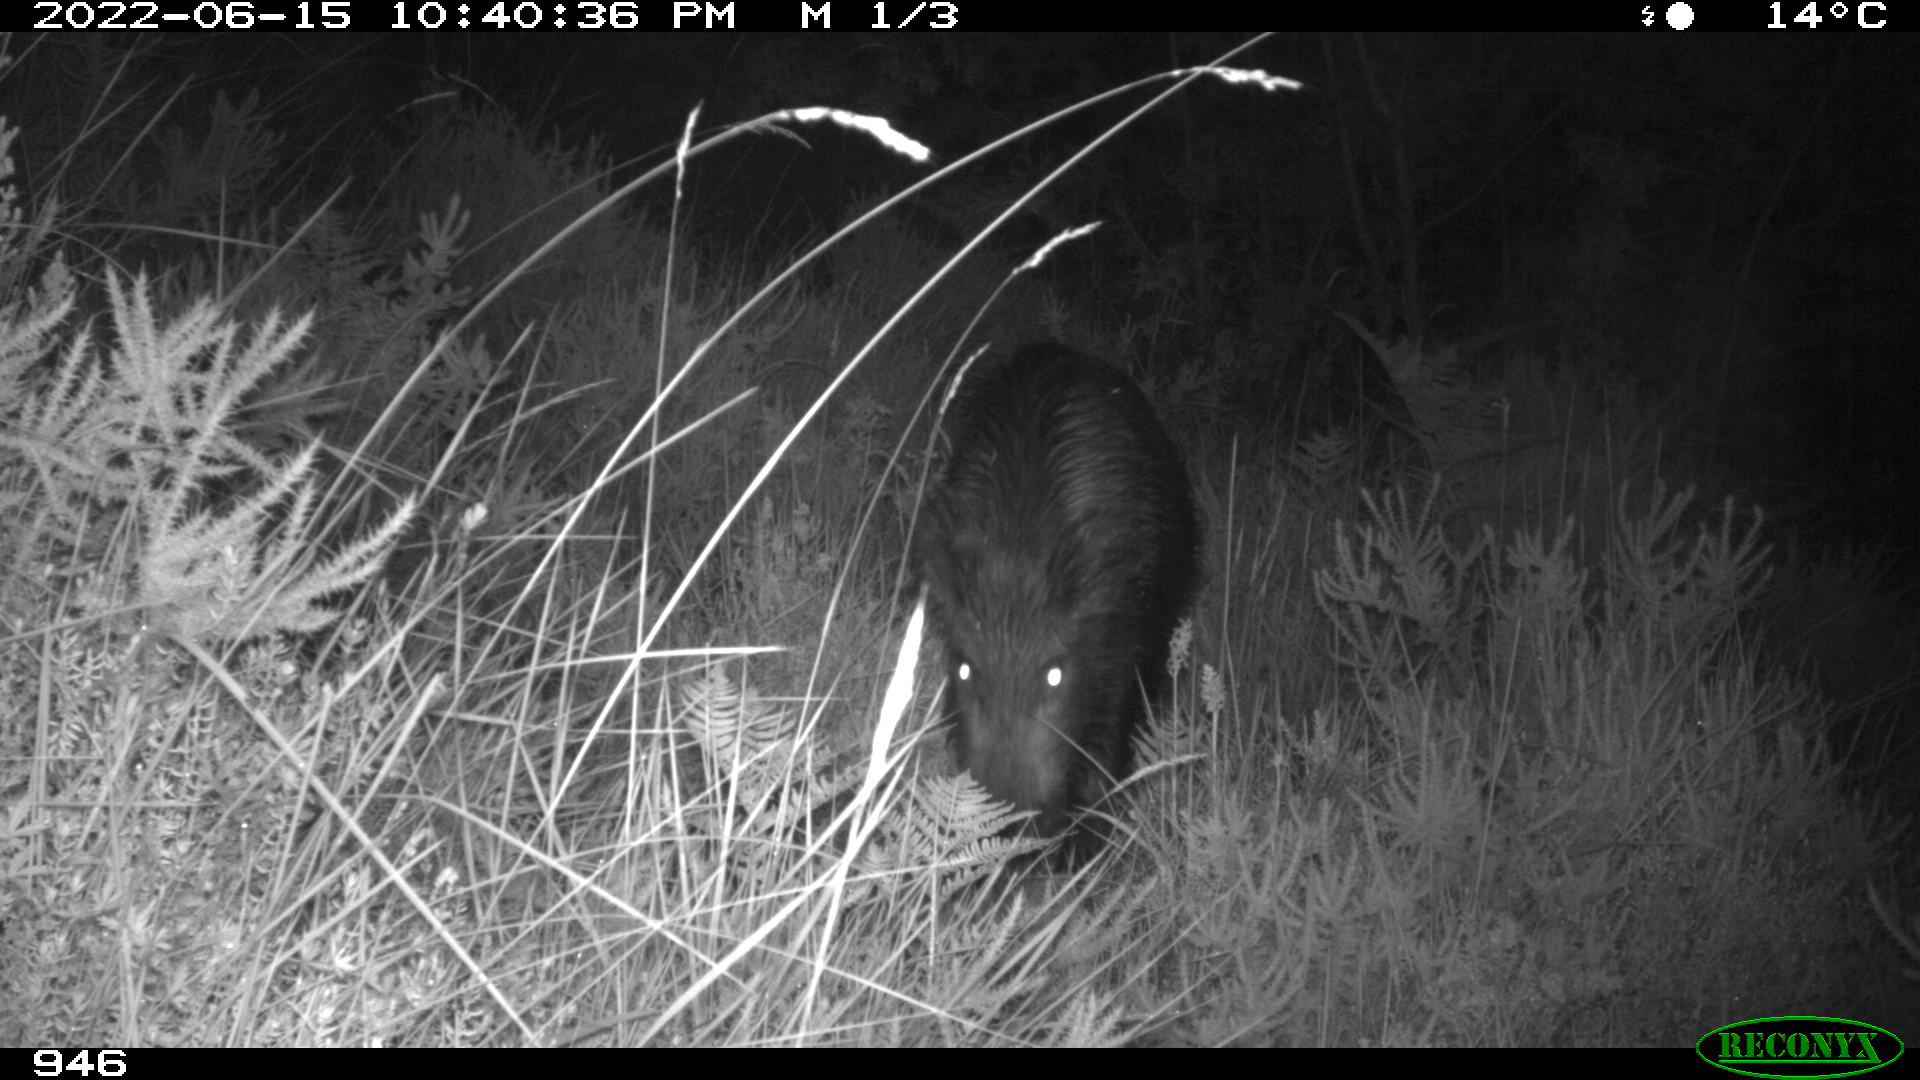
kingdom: Animalia
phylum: Chordata
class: Mammalia
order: Artiodactyla
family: Suidae
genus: Sus
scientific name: Sus scrofa
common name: Wild boar
